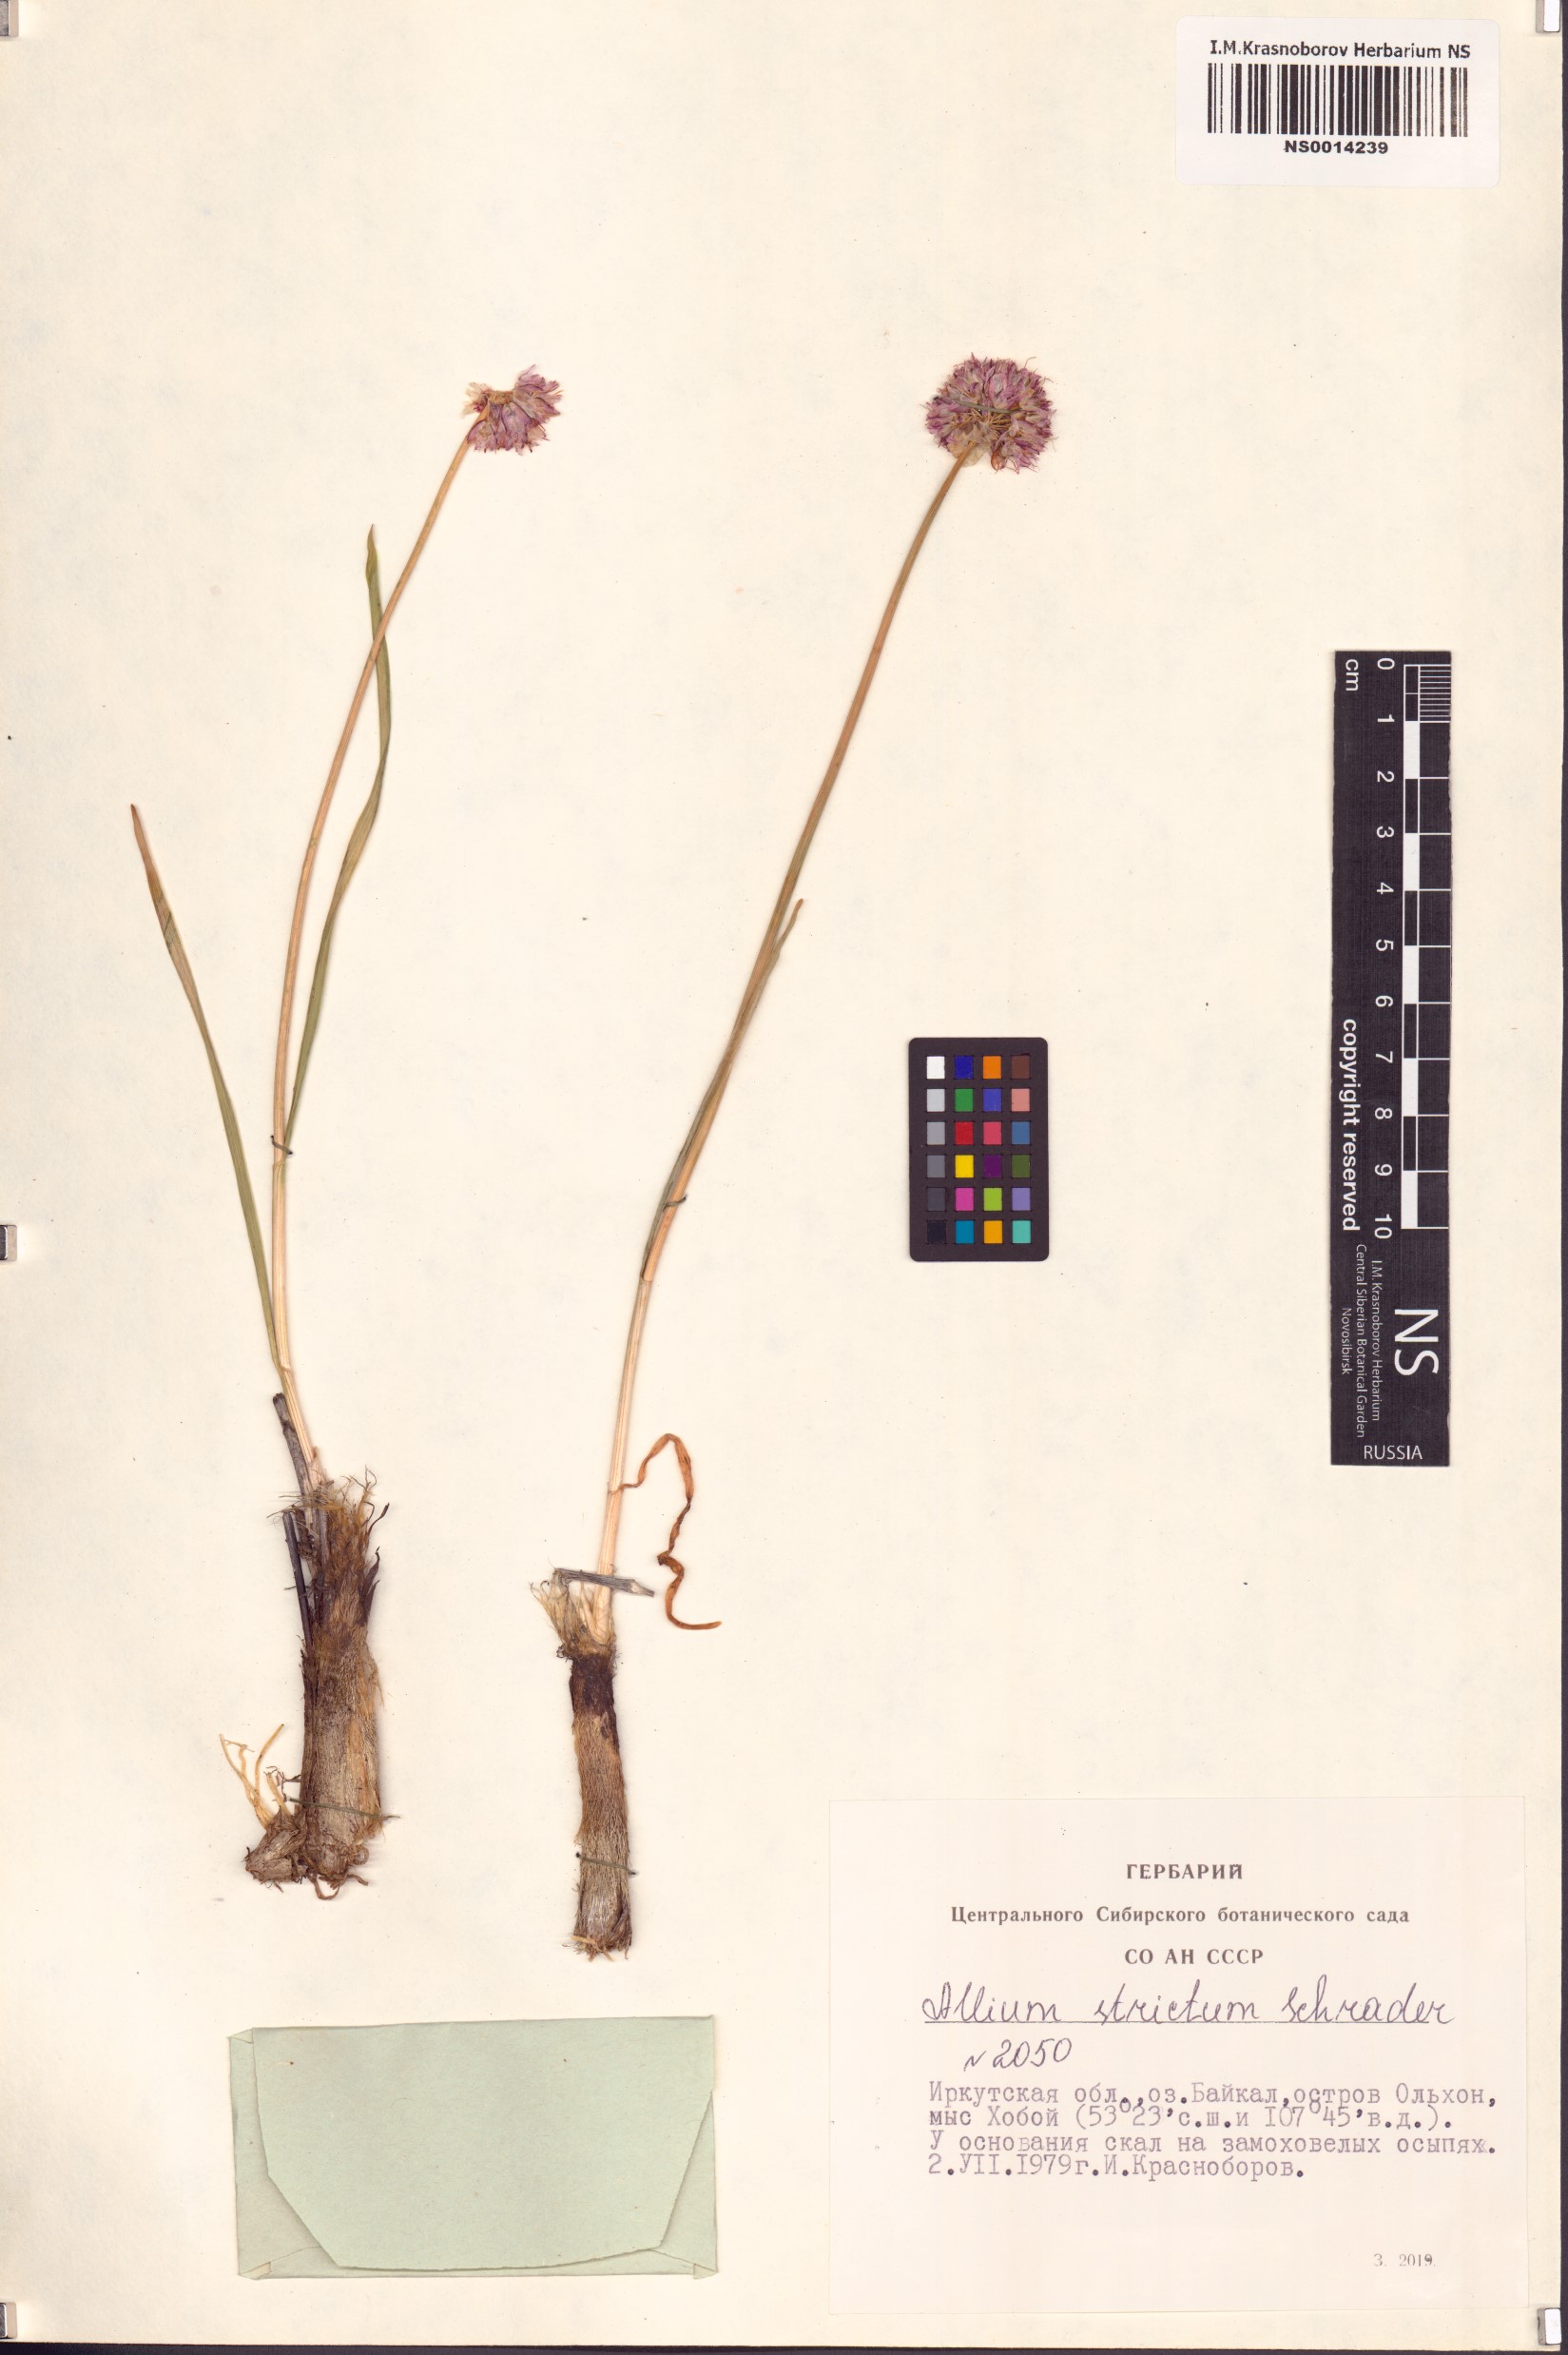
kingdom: Plantae
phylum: Tracheophyta
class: Liliopsida
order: Asparagales
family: Amaryllidaceae
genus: Allium
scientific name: Allium strictum
